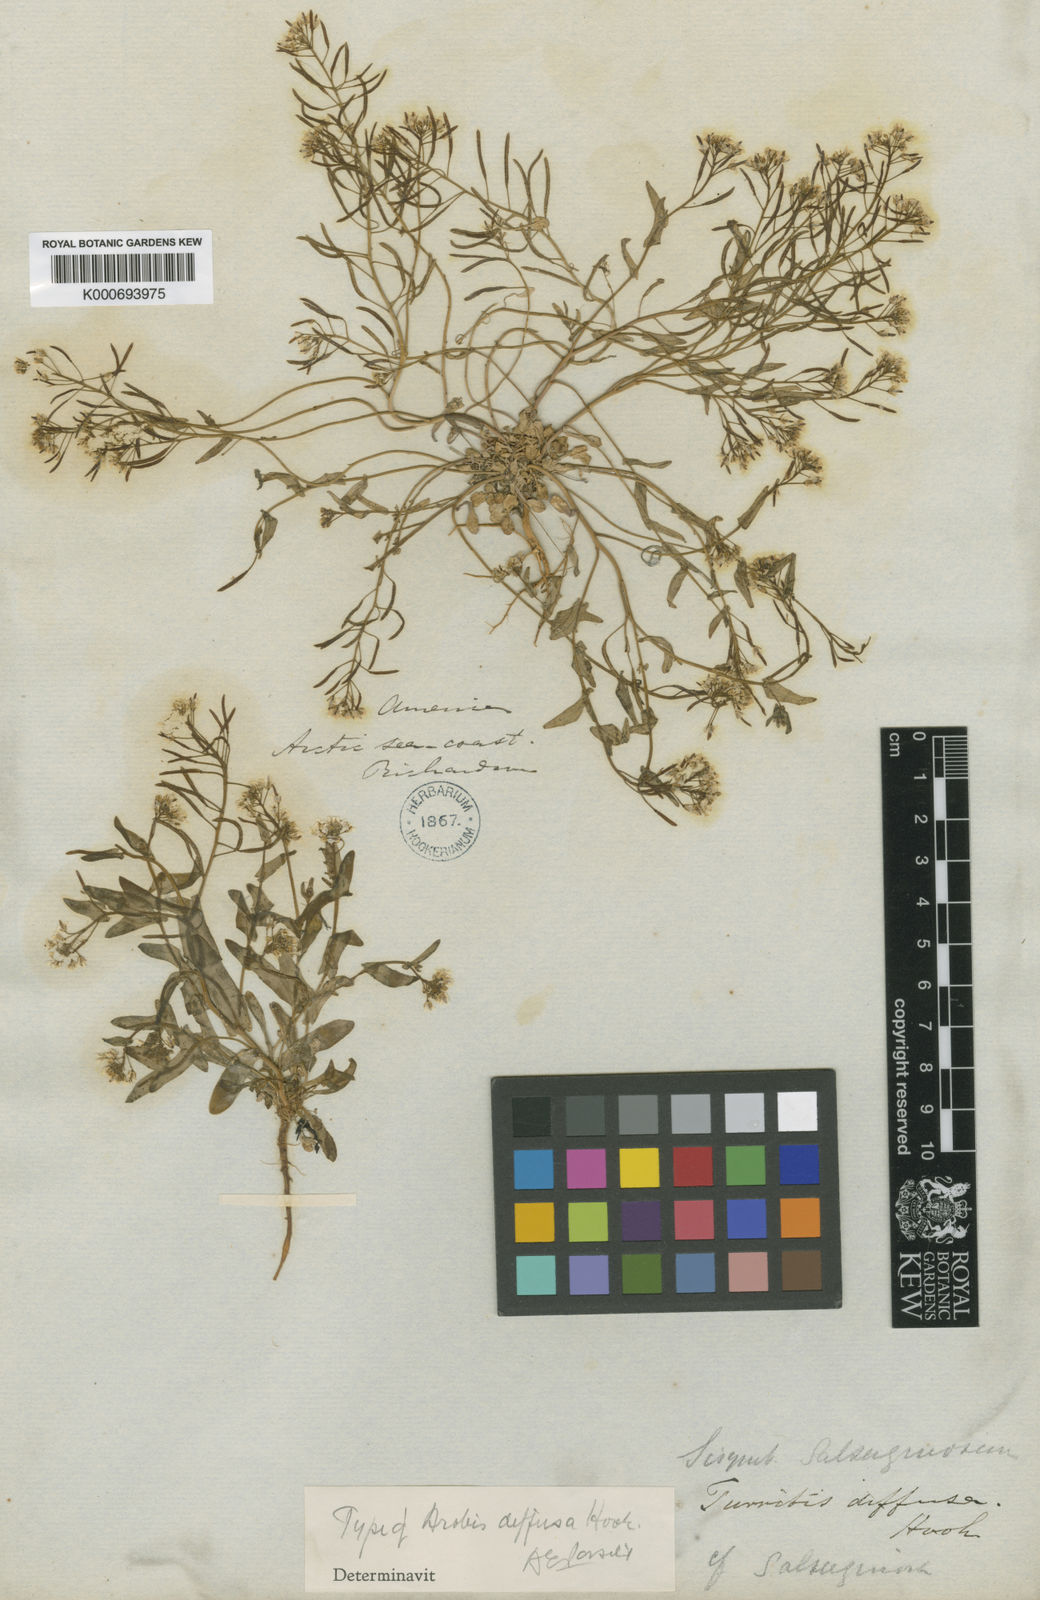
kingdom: Plantae
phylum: Tracheophyta
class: Magnoliopsida
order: Brassicales
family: Brassicaceae
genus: Eutrema
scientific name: Eutrema salsugineum
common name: Mouse-ear cress
